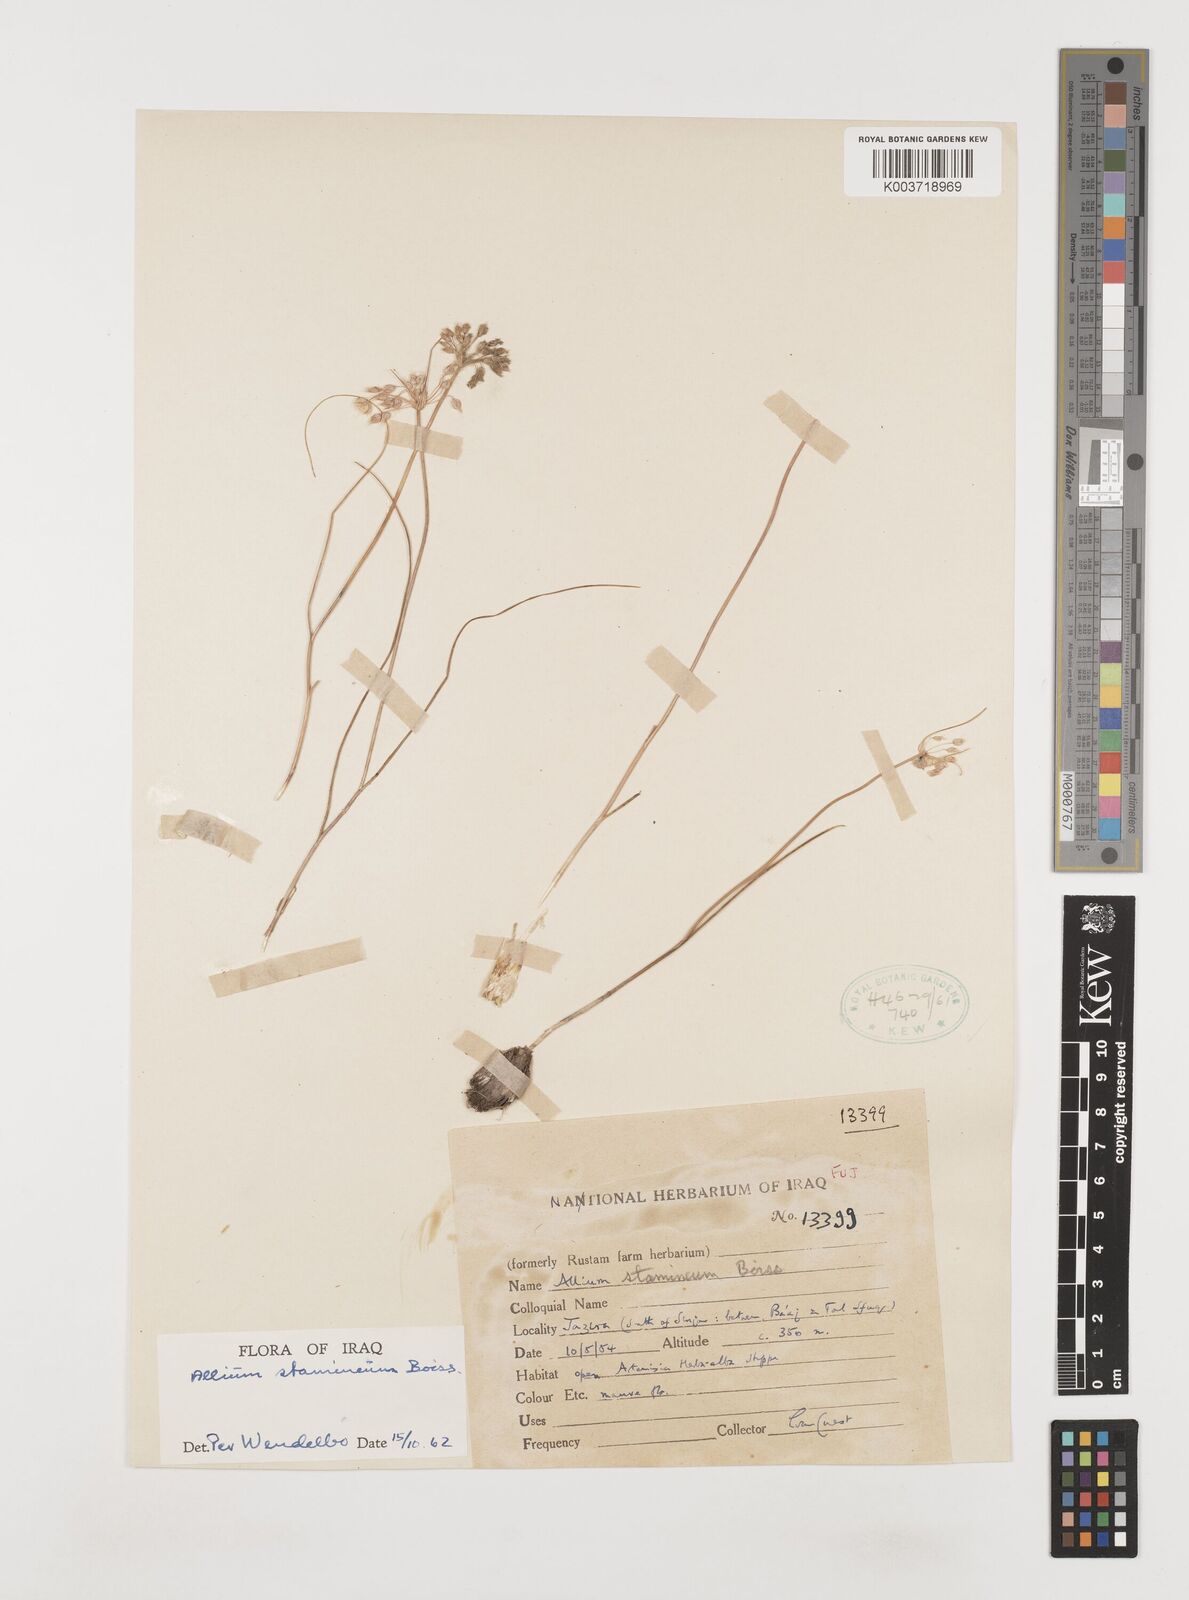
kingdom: Plantae
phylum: Tracheophyta
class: Liliopsida
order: Asparagales
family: Amaryllidaceae
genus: Allium
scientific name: Allium stamineum
